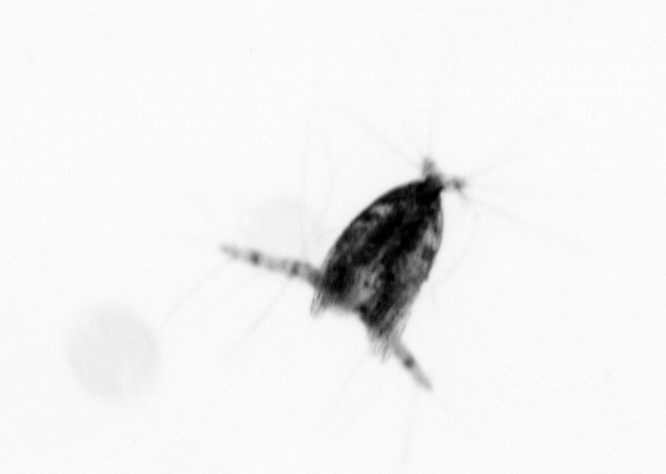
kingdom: Animalia
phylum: Arthropoda
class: Copepoda
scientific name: Copepoda
